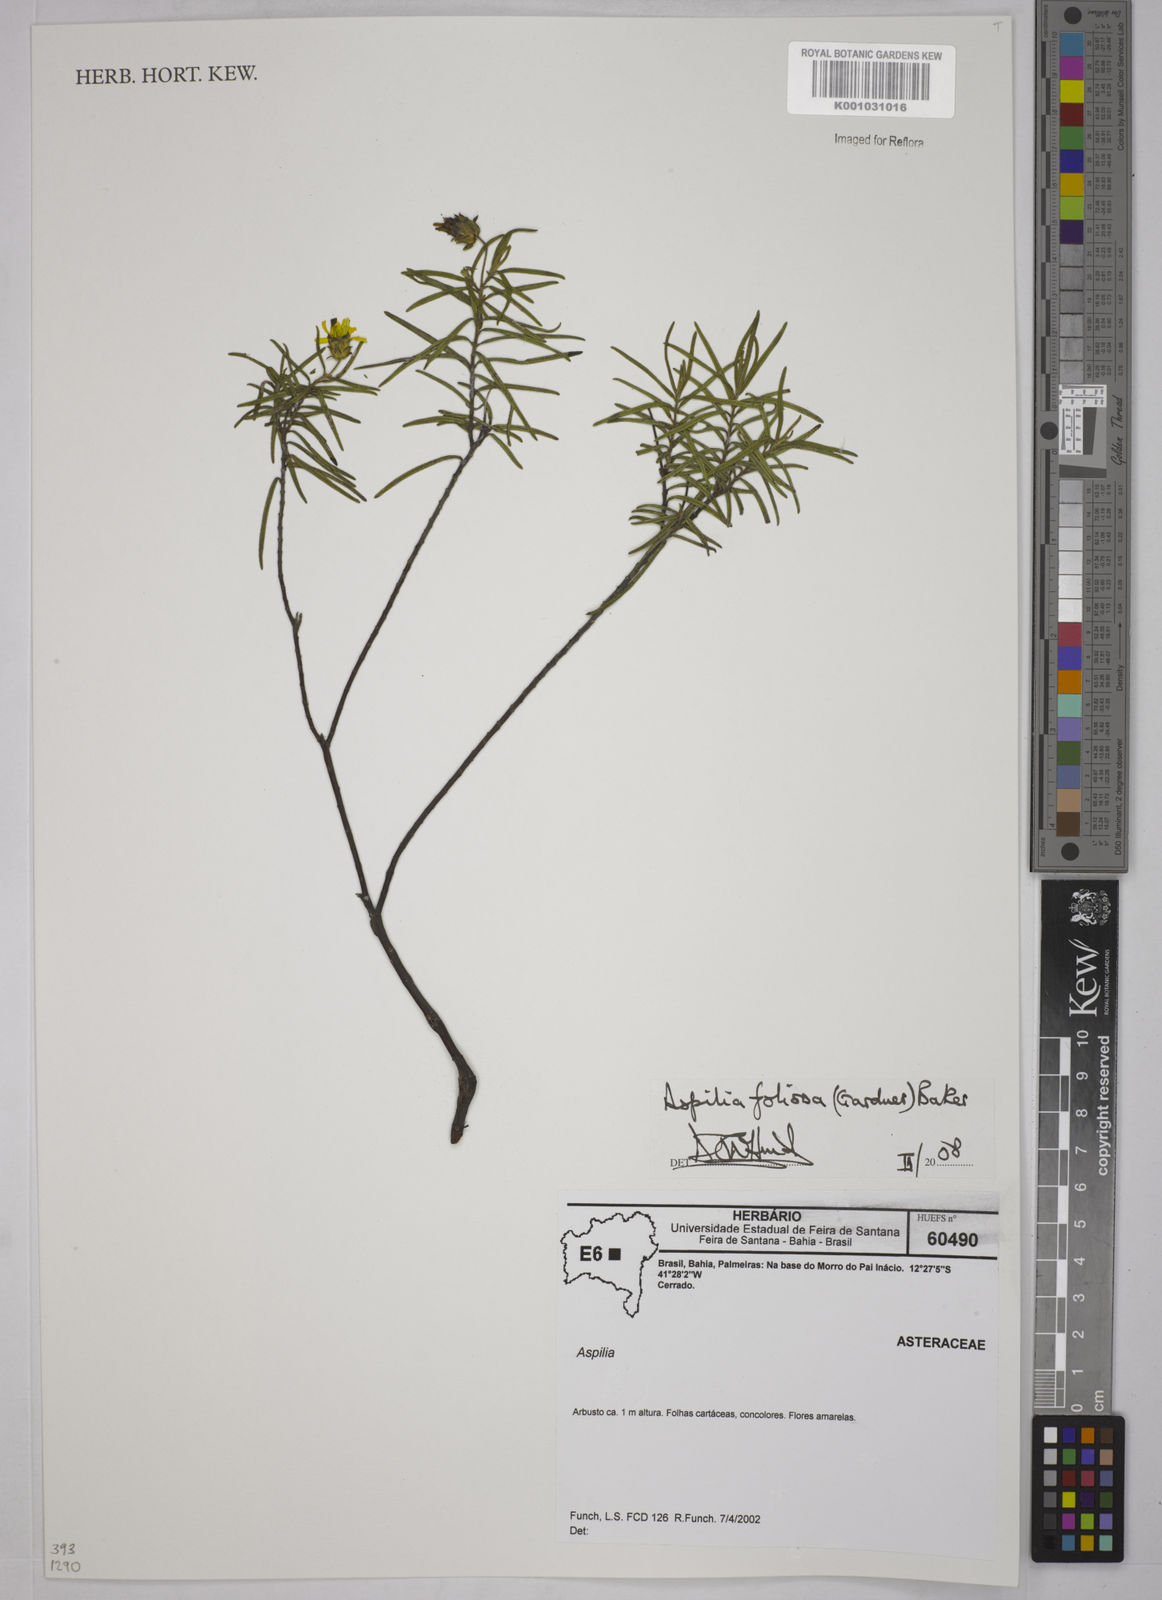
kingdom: Plantae
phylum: Tracheophyta
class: Magnoliopsida
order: Asterales
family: Asteraceae
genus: Aspilia
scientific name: Aspilia
